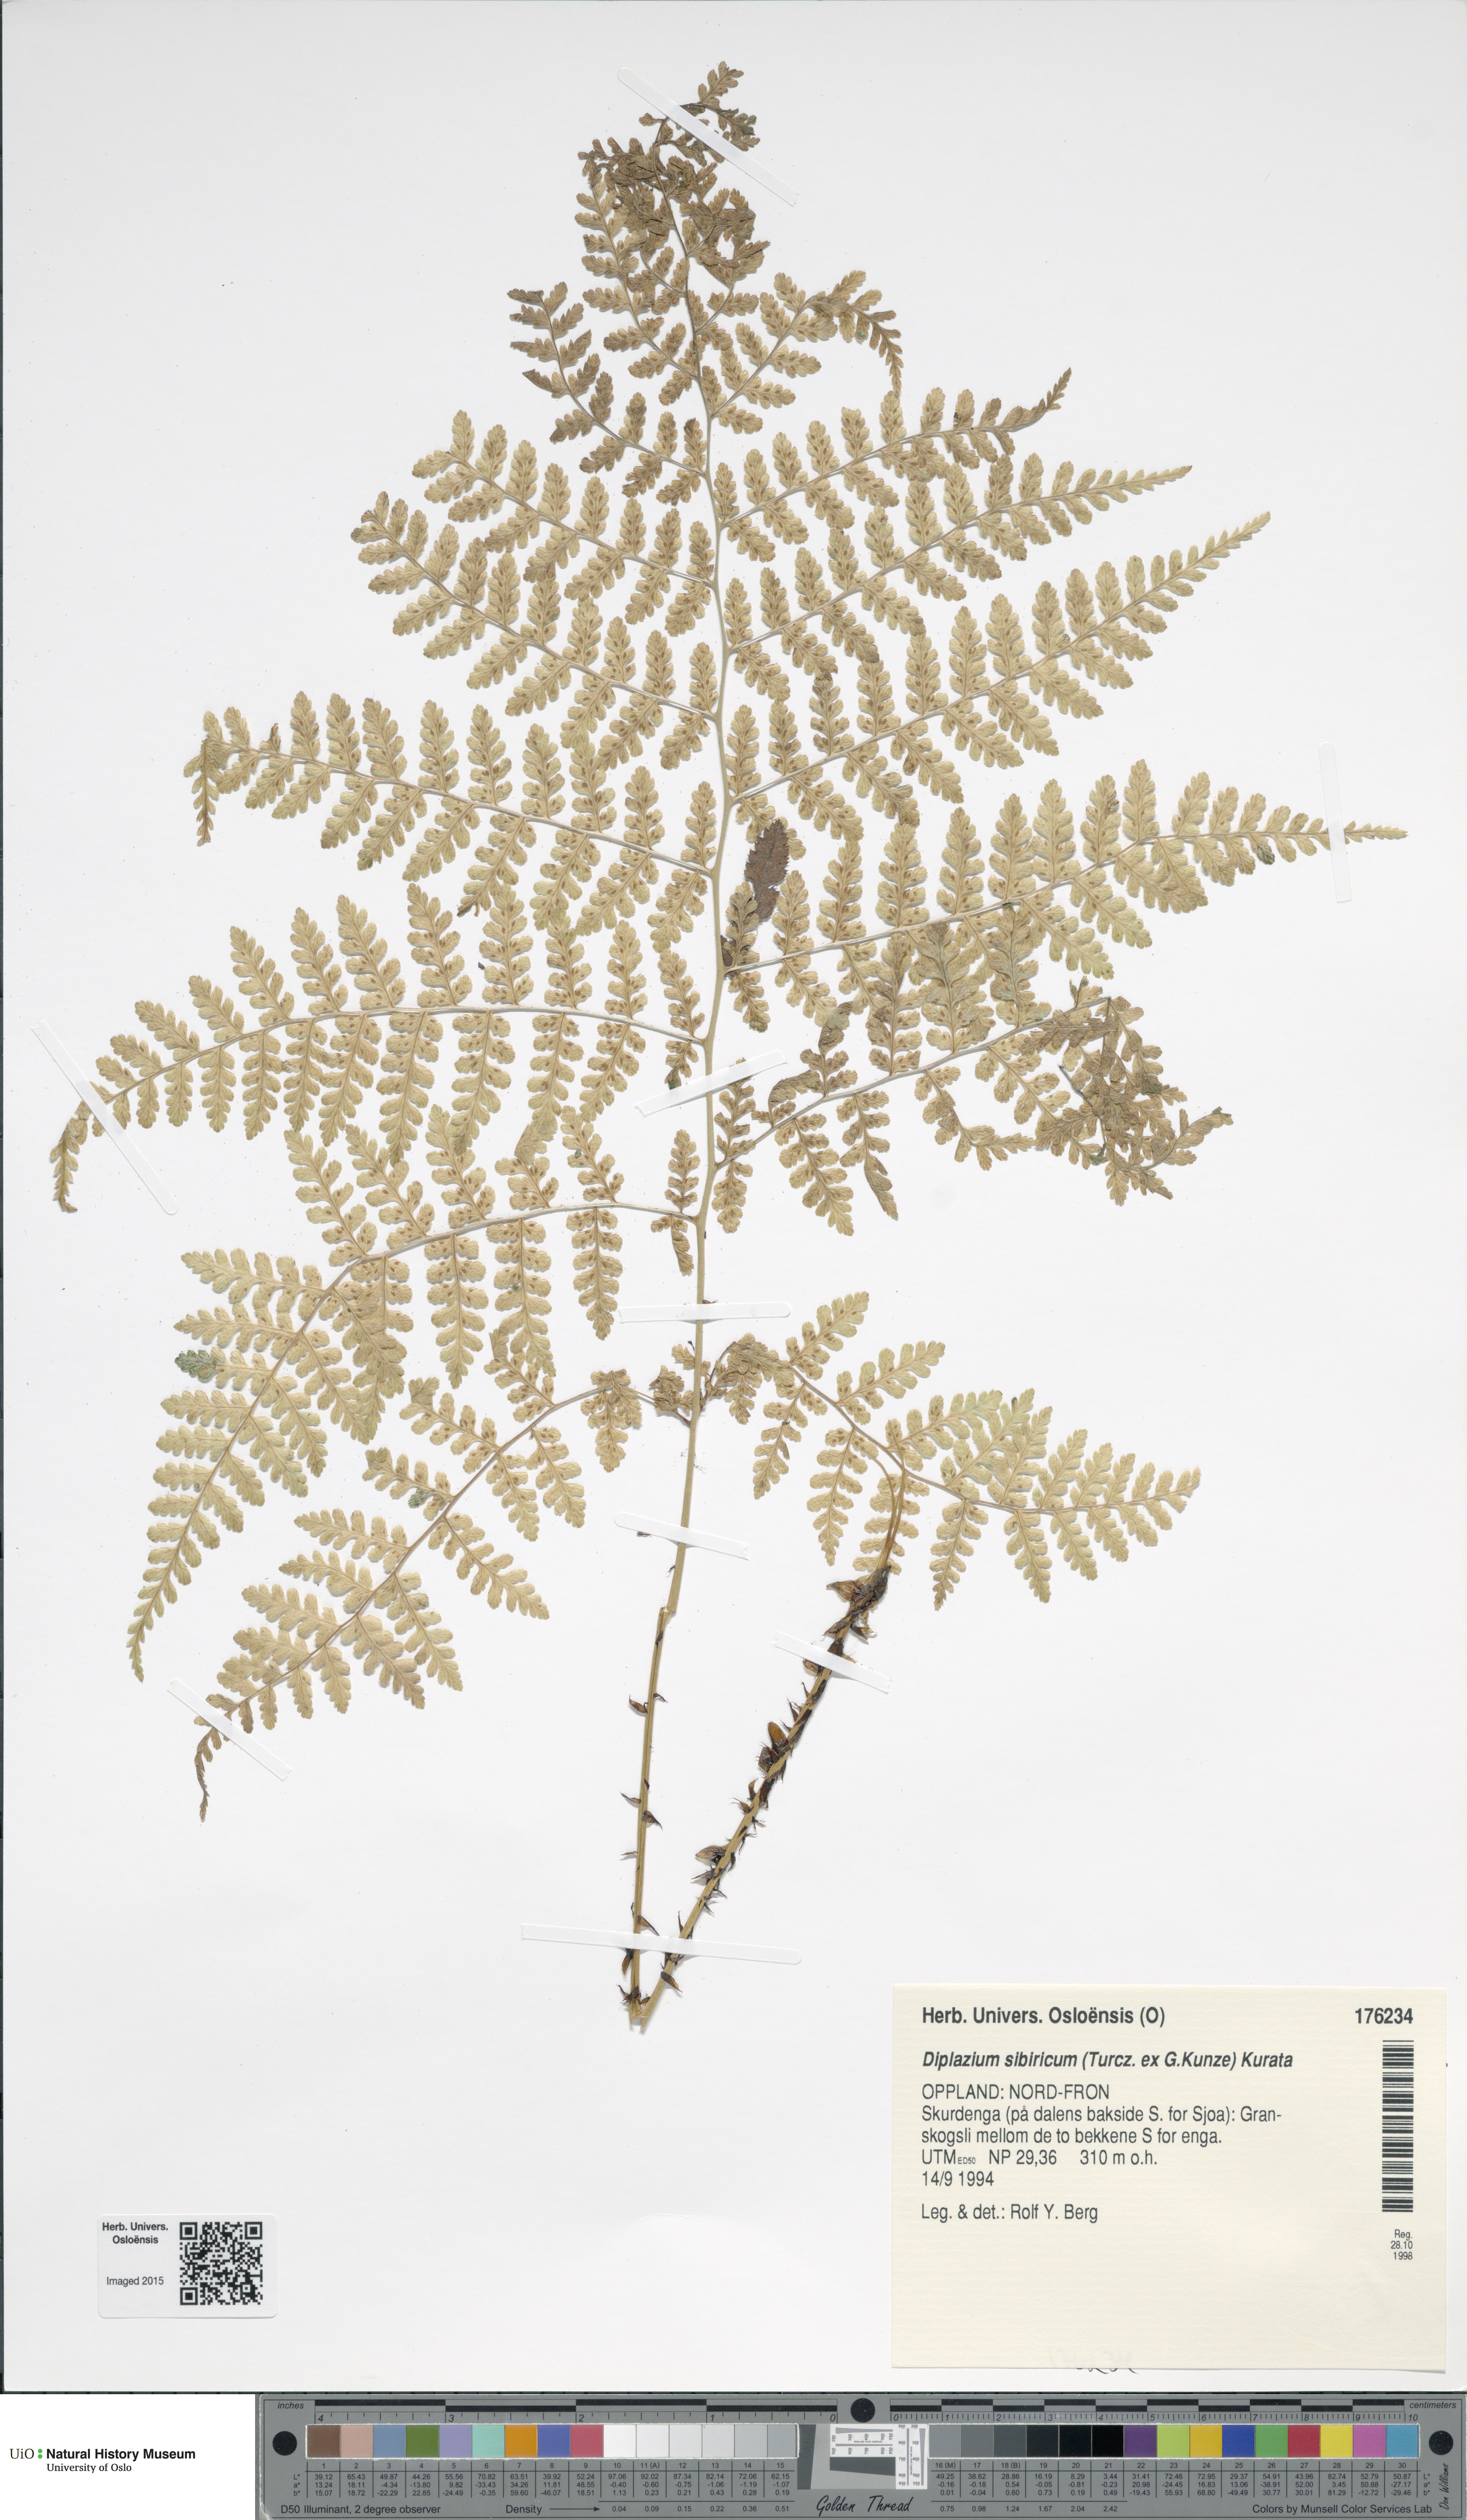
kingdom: Plantae
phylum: Tracheophyta
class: Polypodiopsida
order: Polypodiales
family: Athyriaceae
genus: Diplazium
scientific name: Diplazium sibiricum
